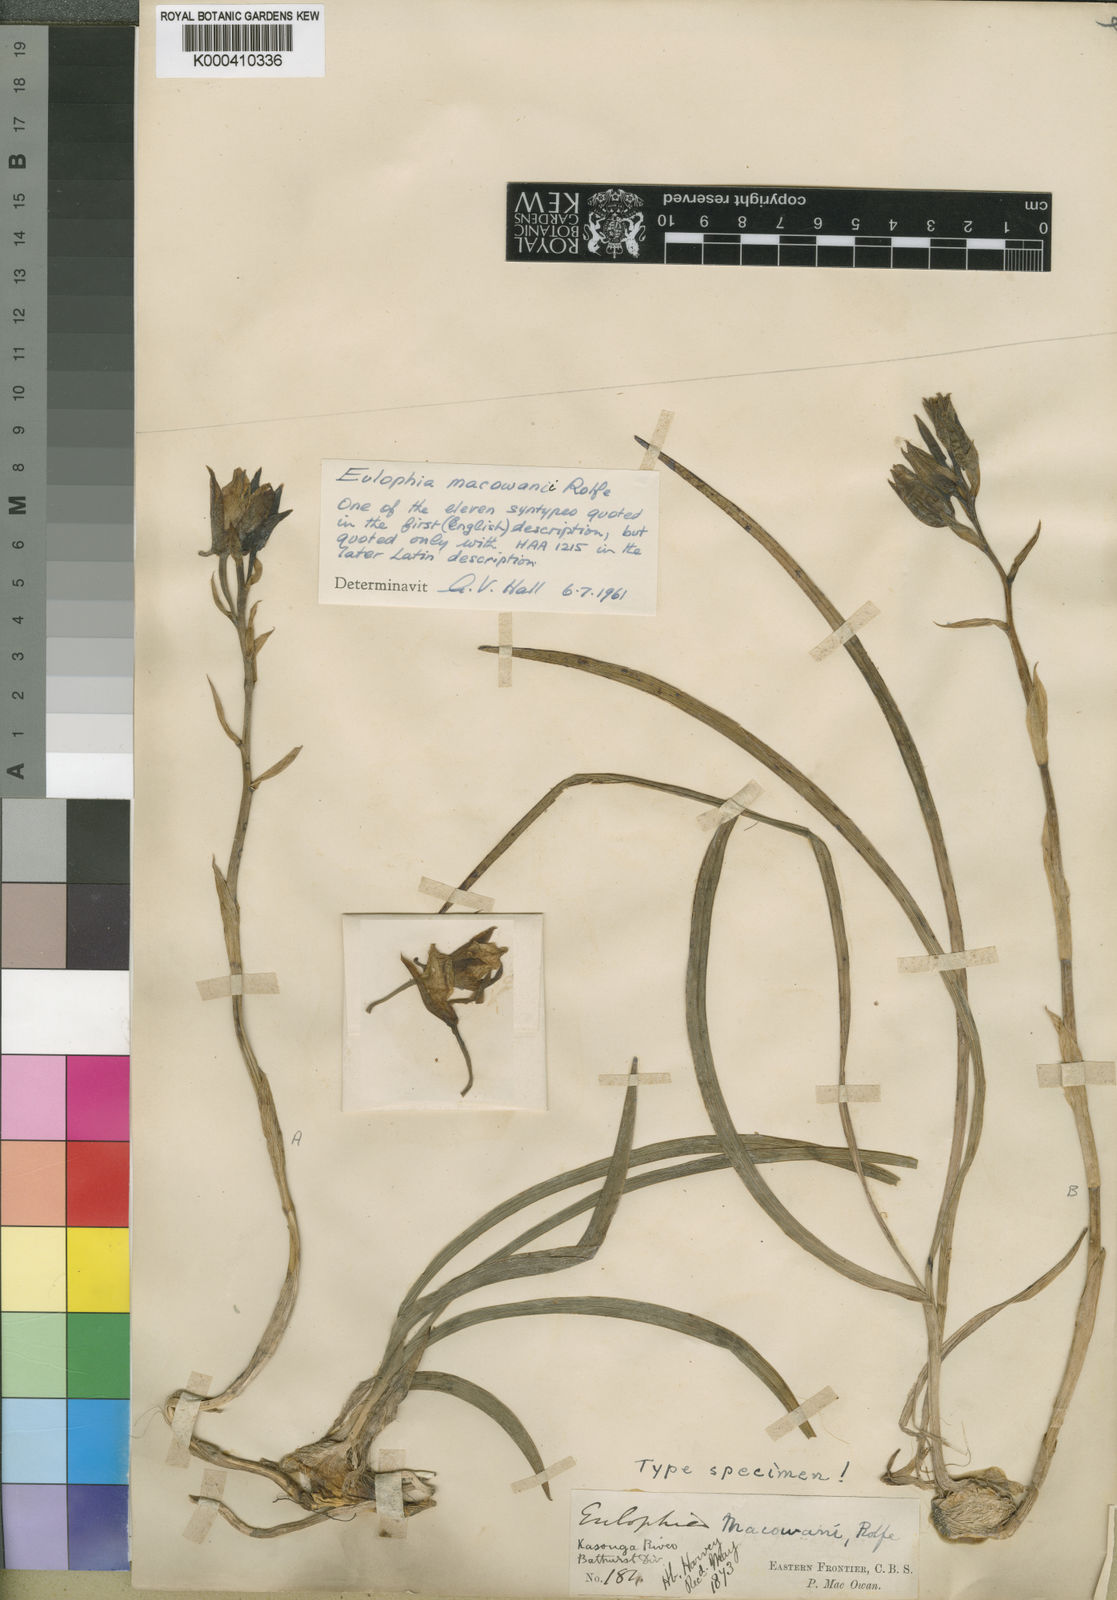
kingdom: Plantae
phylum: Tracheophyta
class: Liliopsida
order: Asparagales
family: Orchidaceae
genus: Eulophia
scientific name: Eulophia macowanii
